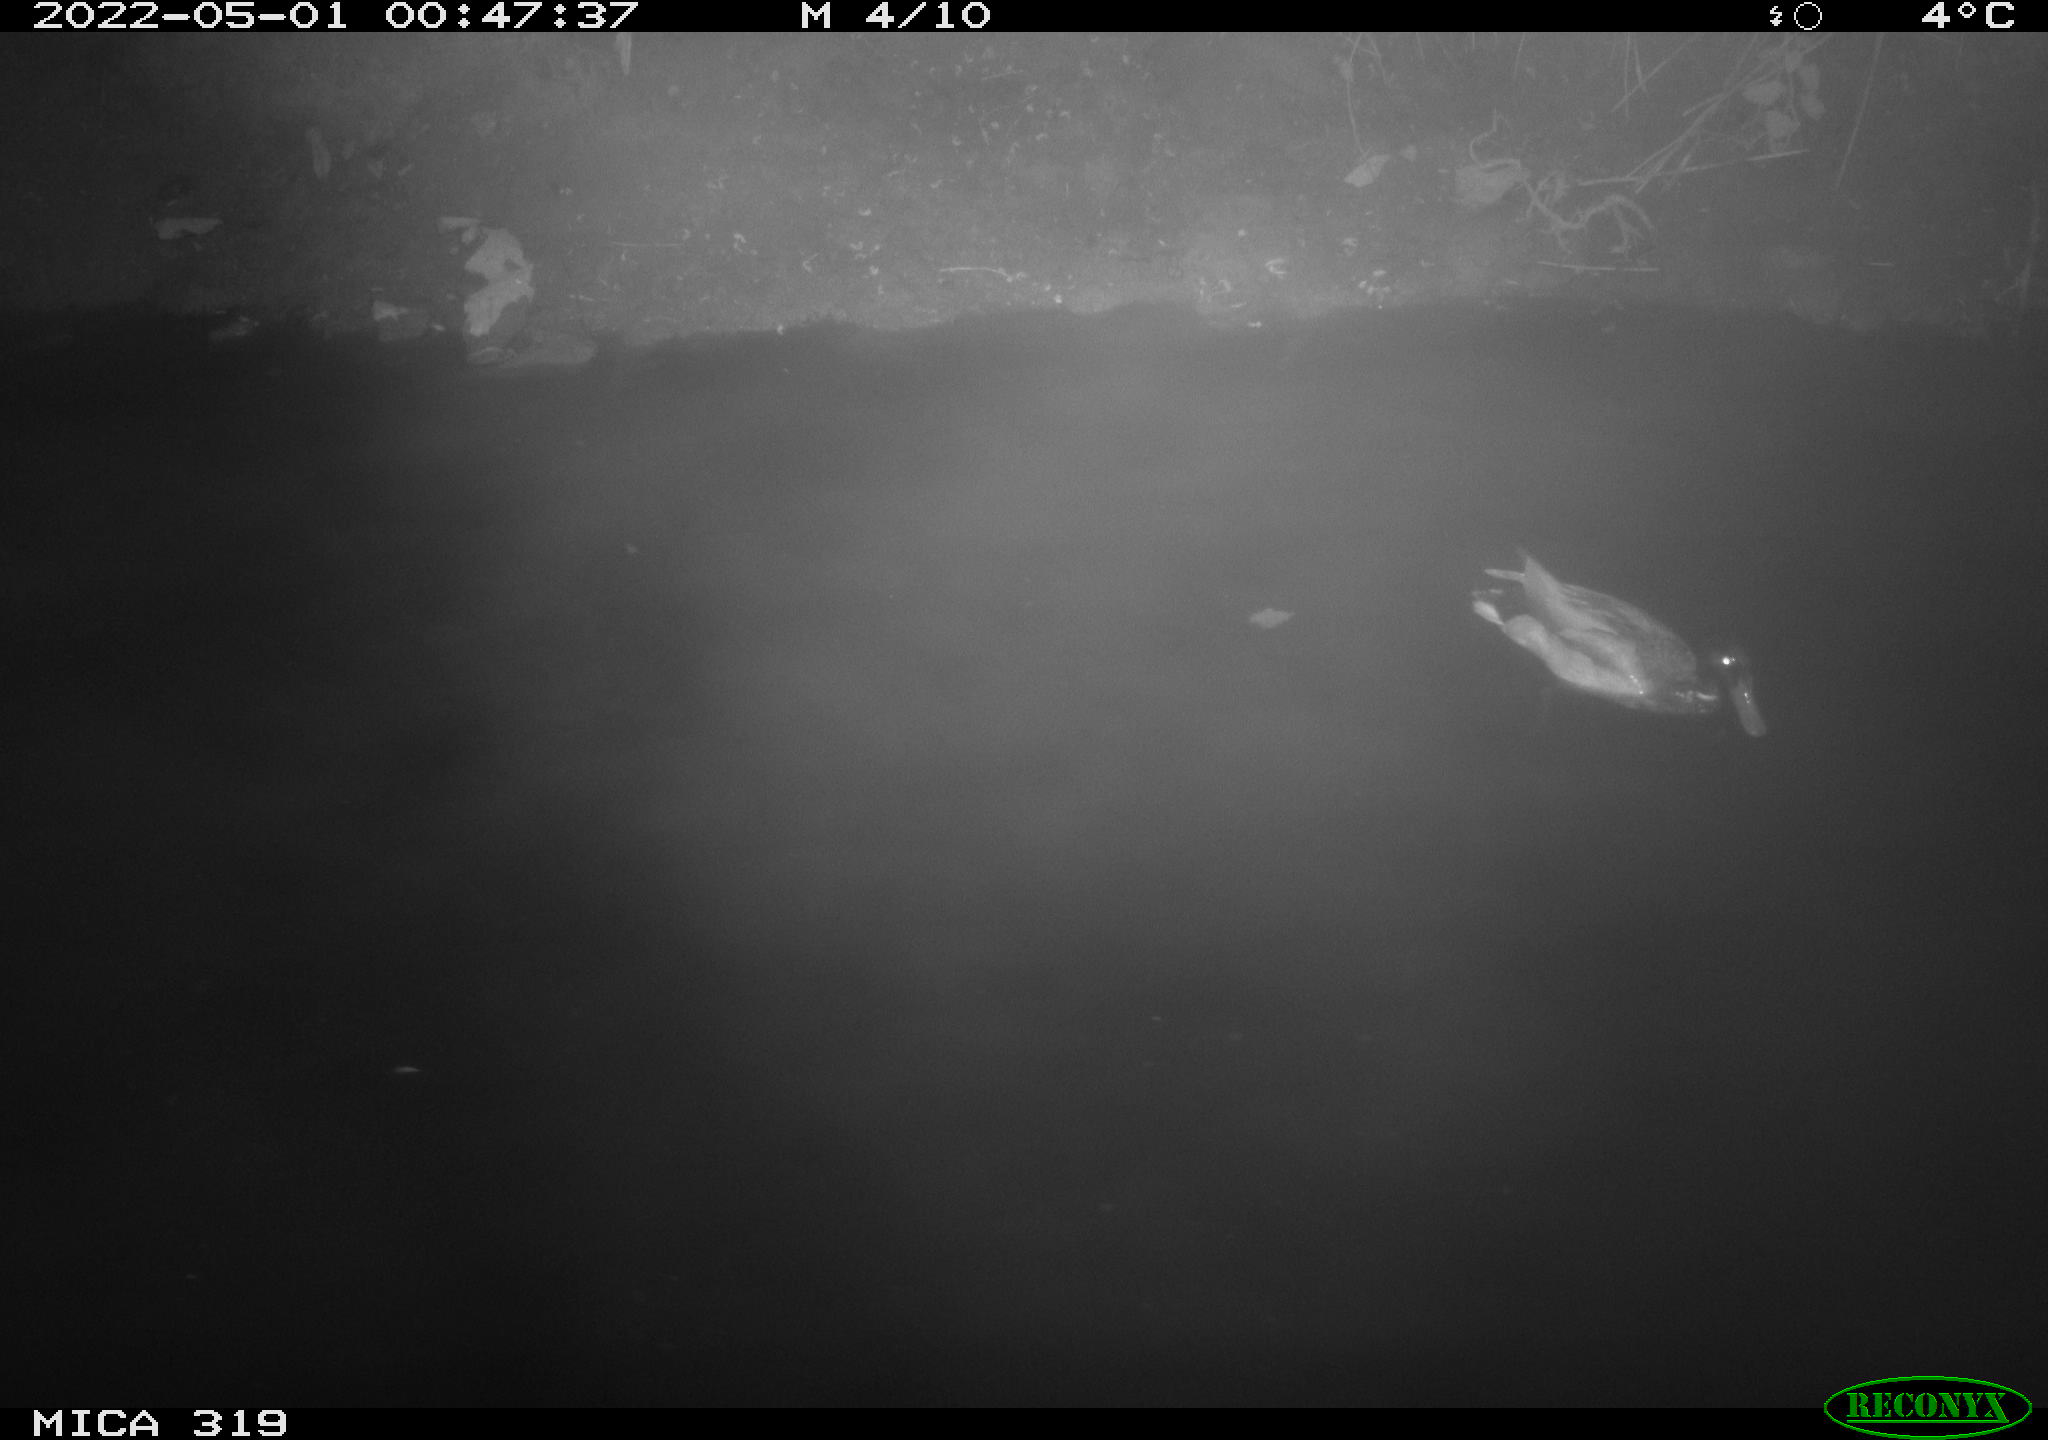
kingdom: Animalia
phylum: Chordata
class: Aves
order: Anseriformes
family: Anatidae
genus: Anas
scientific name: Anas platyrhynchos
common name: Mallard
